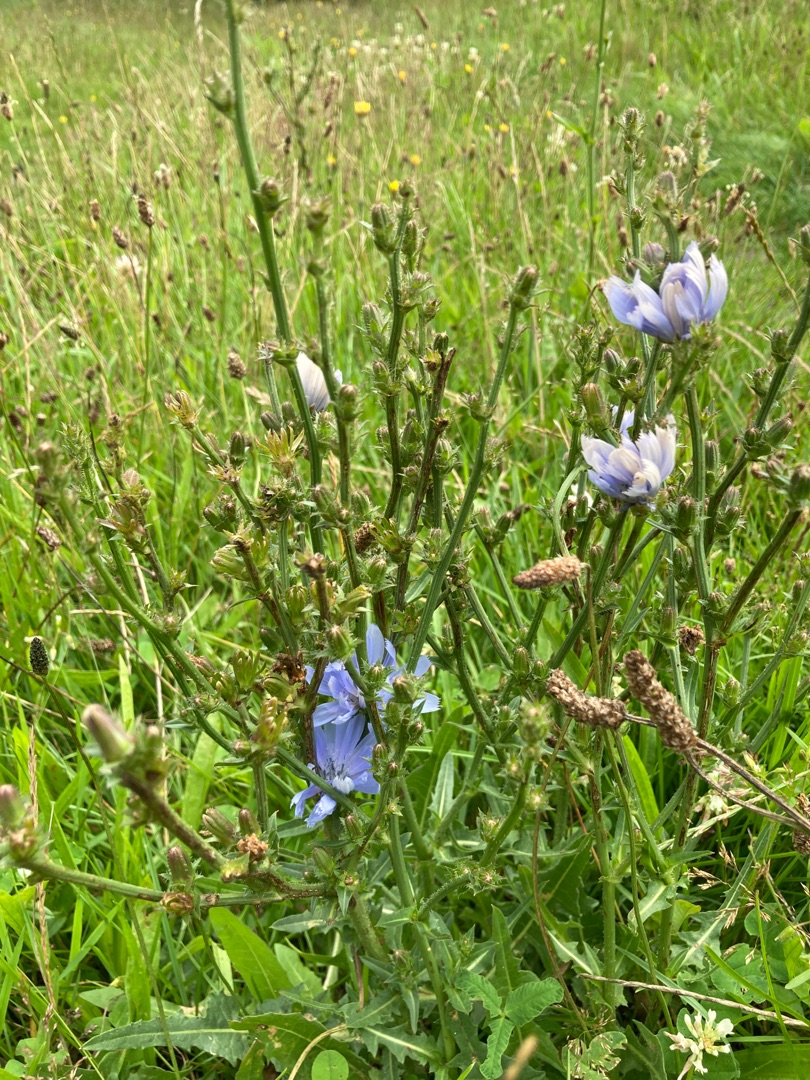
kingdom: Plantae
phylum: Tracheophyta
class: Magnoliopsida
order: Asterales
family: Asteraceae
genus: Cichorium
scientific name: Cichorium intybus
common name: Cikorie
